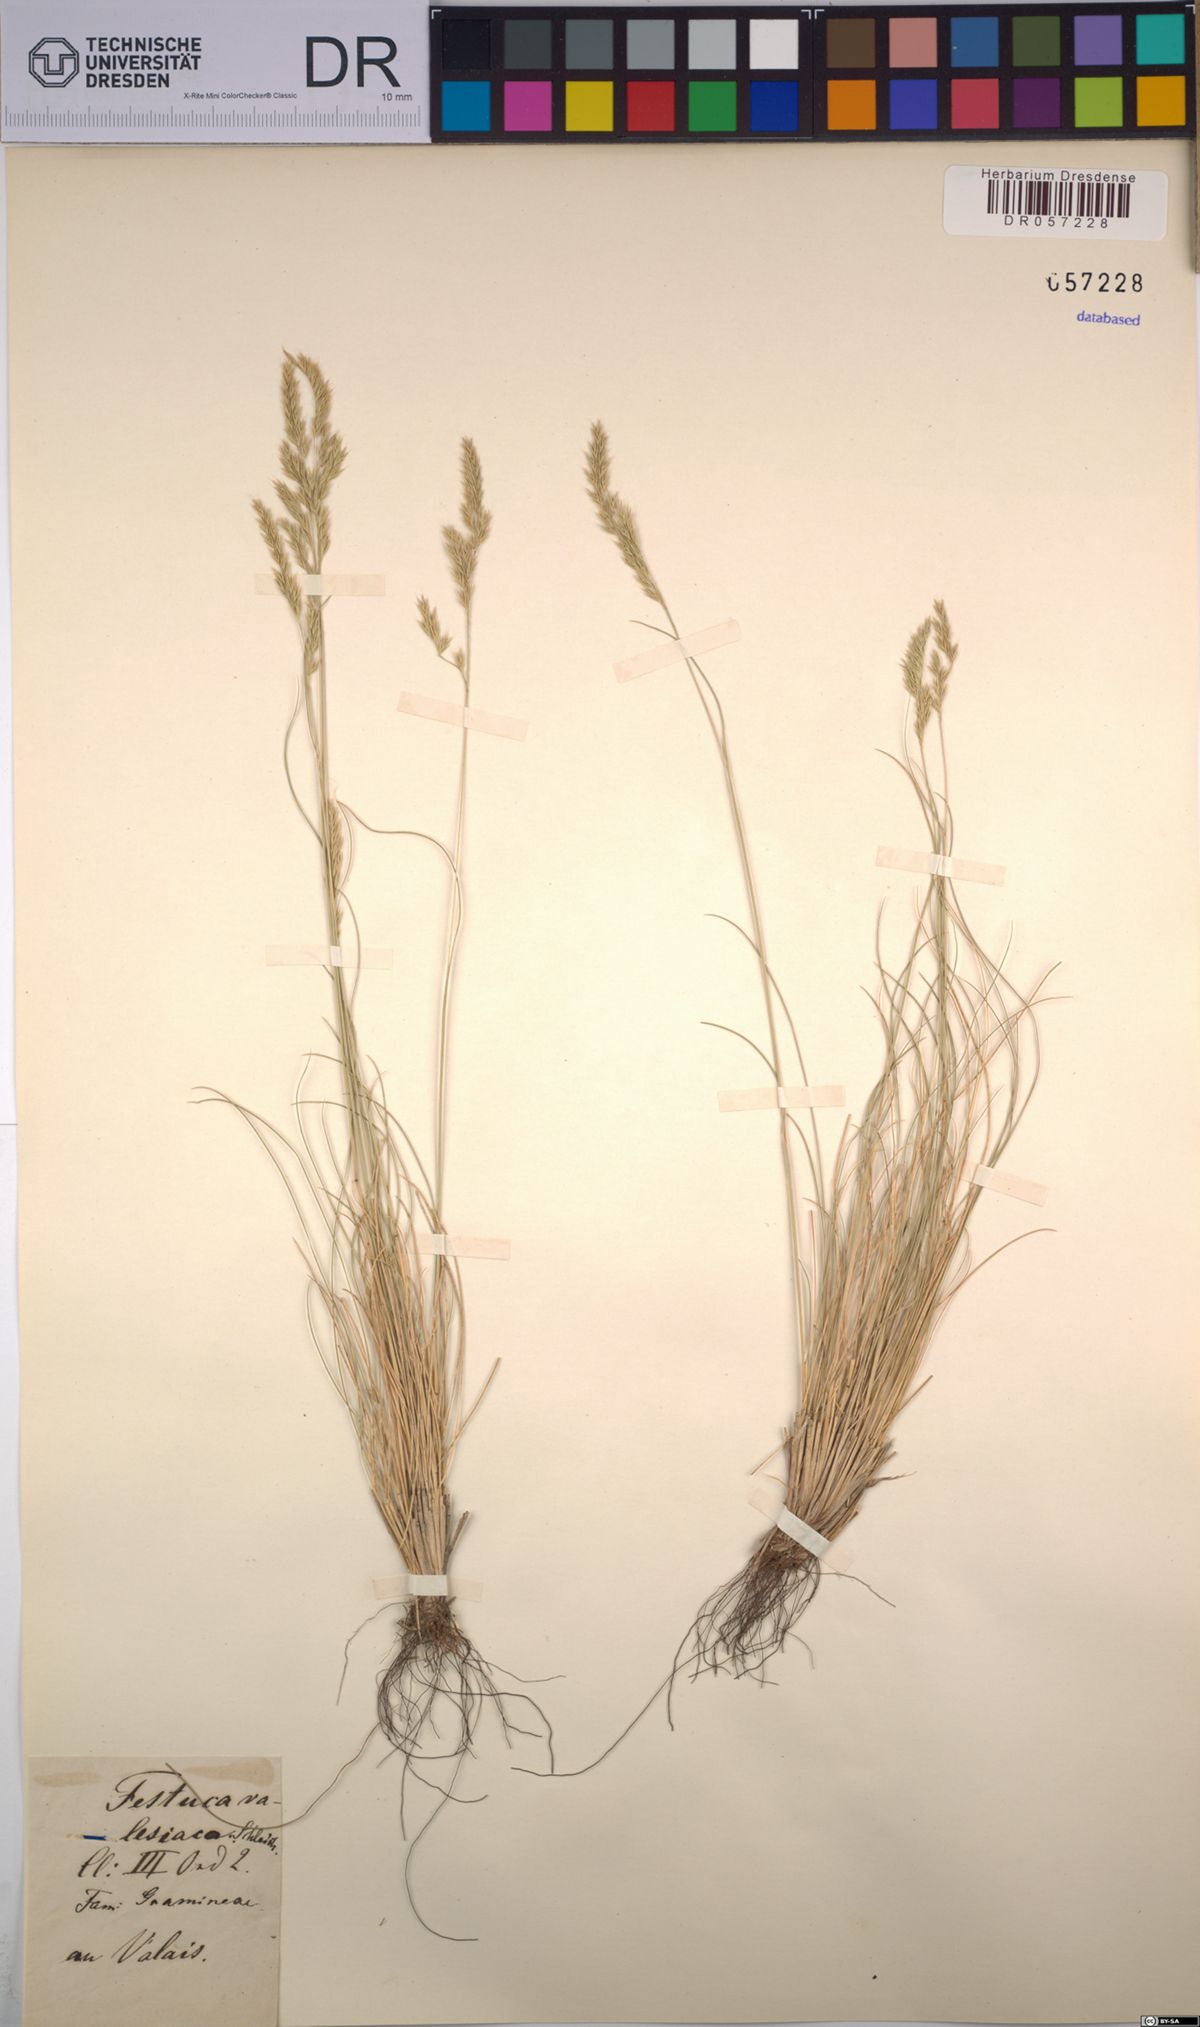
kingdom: Plantae
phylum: Tracheophyta
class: Liliopsida
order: Poales
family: Poaceae
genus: Festuca
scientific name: Festuca valesiaca
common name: Volga fescue
